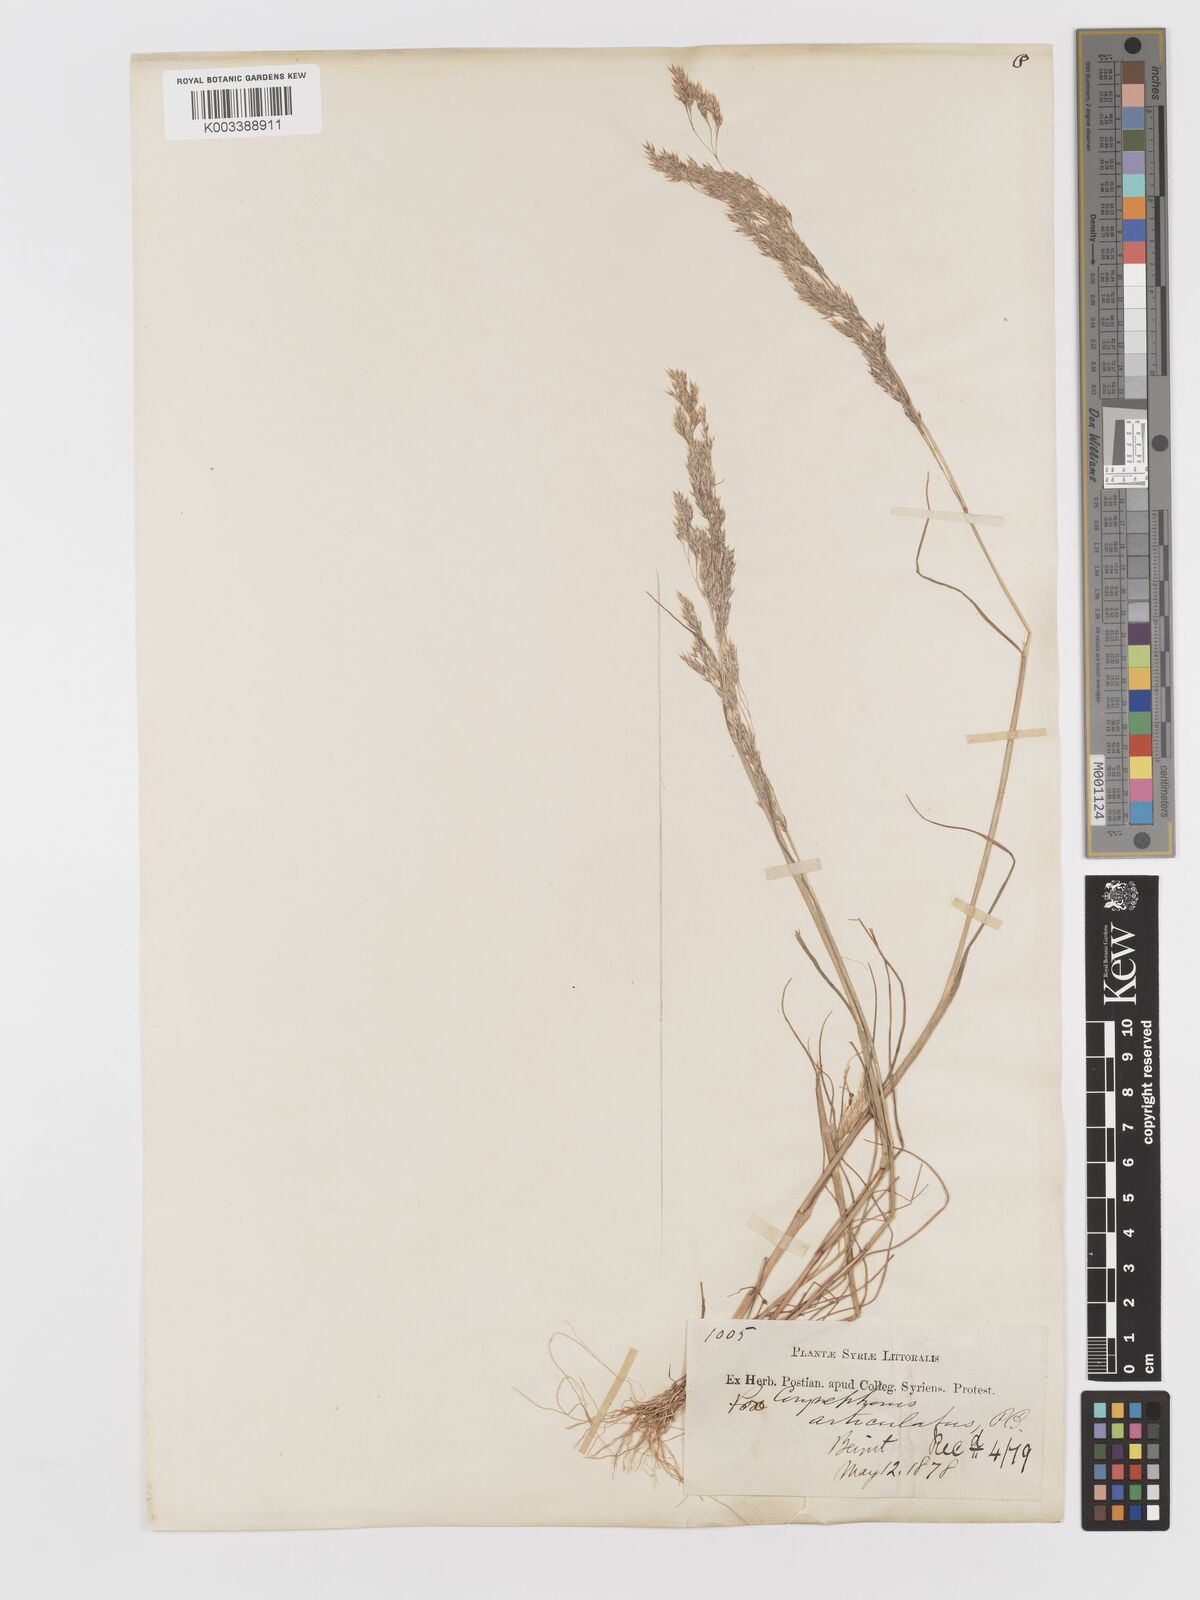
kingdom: Plantae
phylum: Tracheophyta
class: Liliopsida
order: Poales
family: Poaceae
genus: Corynephorus
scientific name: Corynephorus divaricatus
